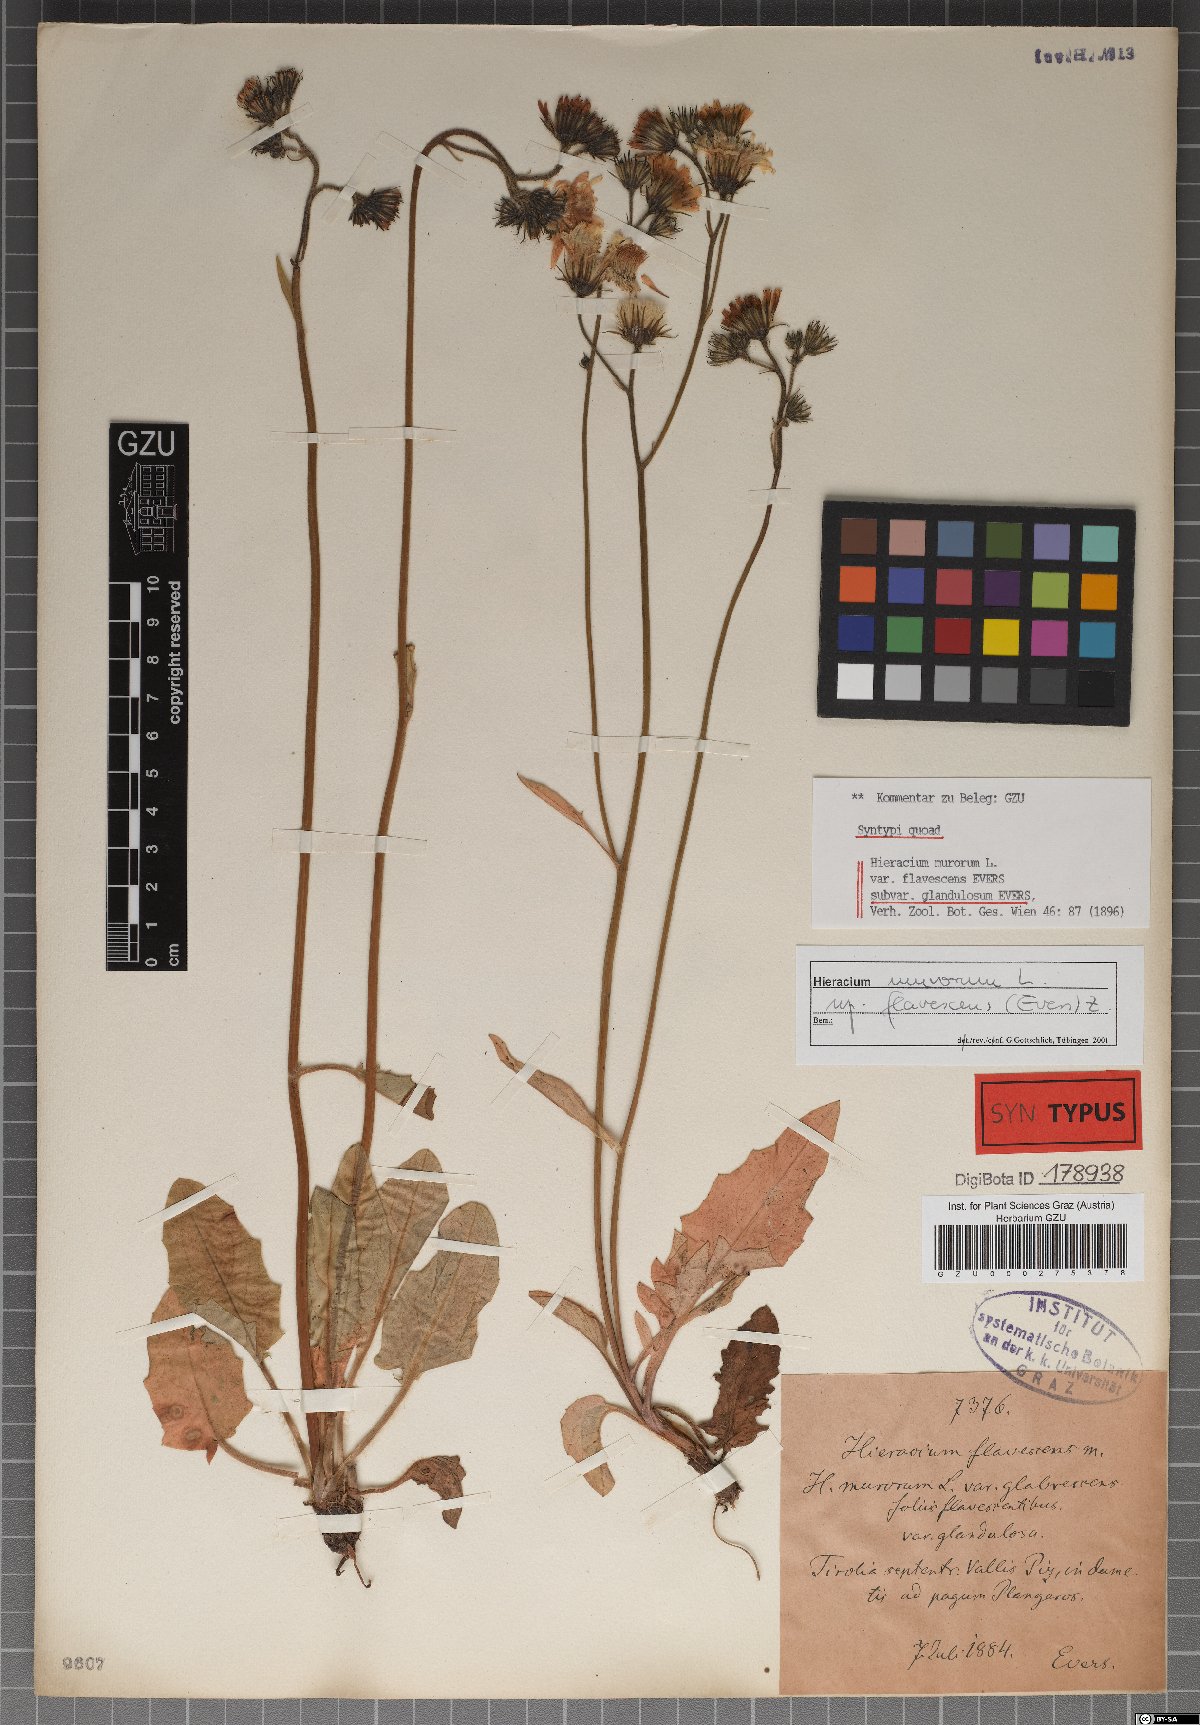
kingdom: Plantae
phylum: Tracheophyta
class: Magnoliopsida
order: Asterales
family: Asteraceae
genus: Hieracium
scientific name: Hieracium murorum
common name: Wall hawkweed
